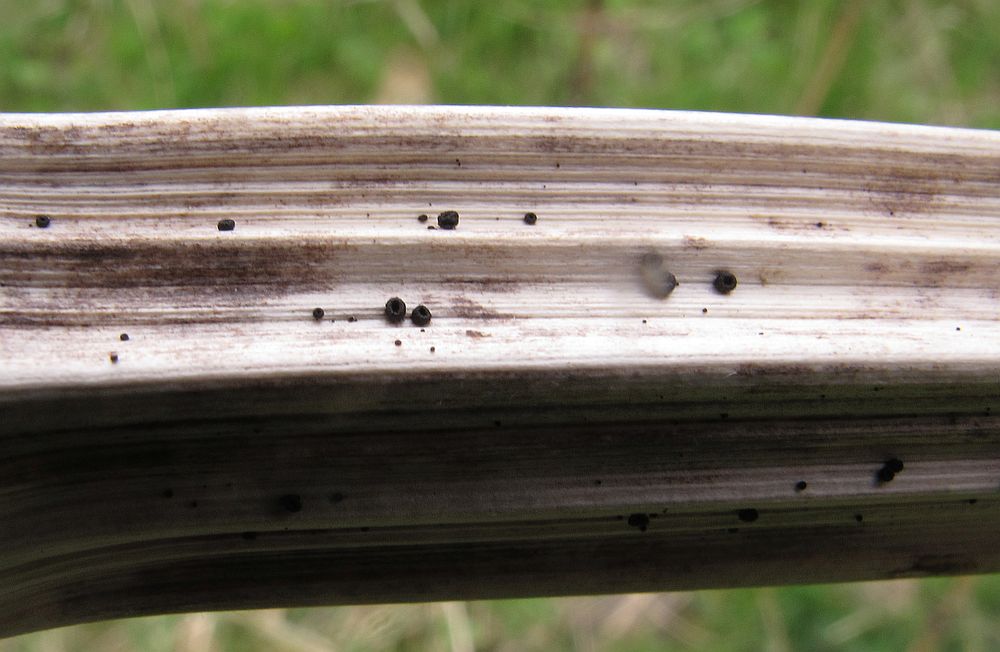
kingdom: Fungi
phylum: Ascomycota
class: Leotiomycetes
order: Helotiales
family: Heterosphaeriaceae
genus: Heterosphaeria
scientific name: Heterosphaeria
